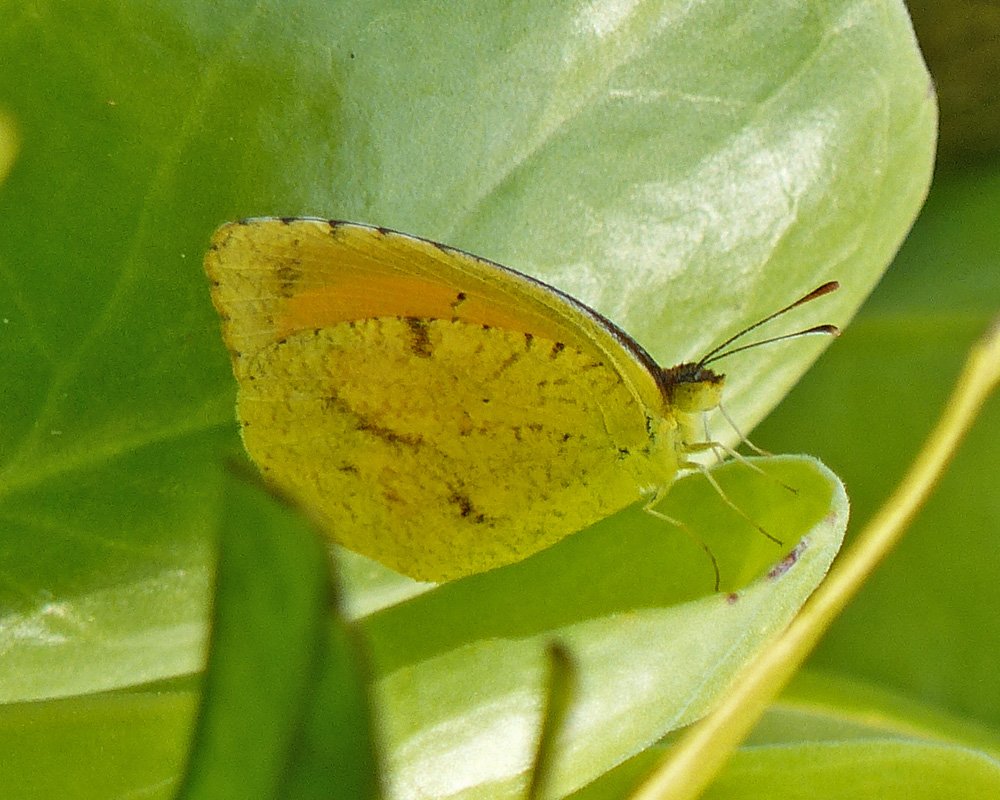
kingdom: Animalia
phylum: Arthropoda
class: Insecta
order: Lepidoptera
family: Pieridae
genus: Abaeis
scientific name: Abaeis nicippe
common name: Sleepy Orange
